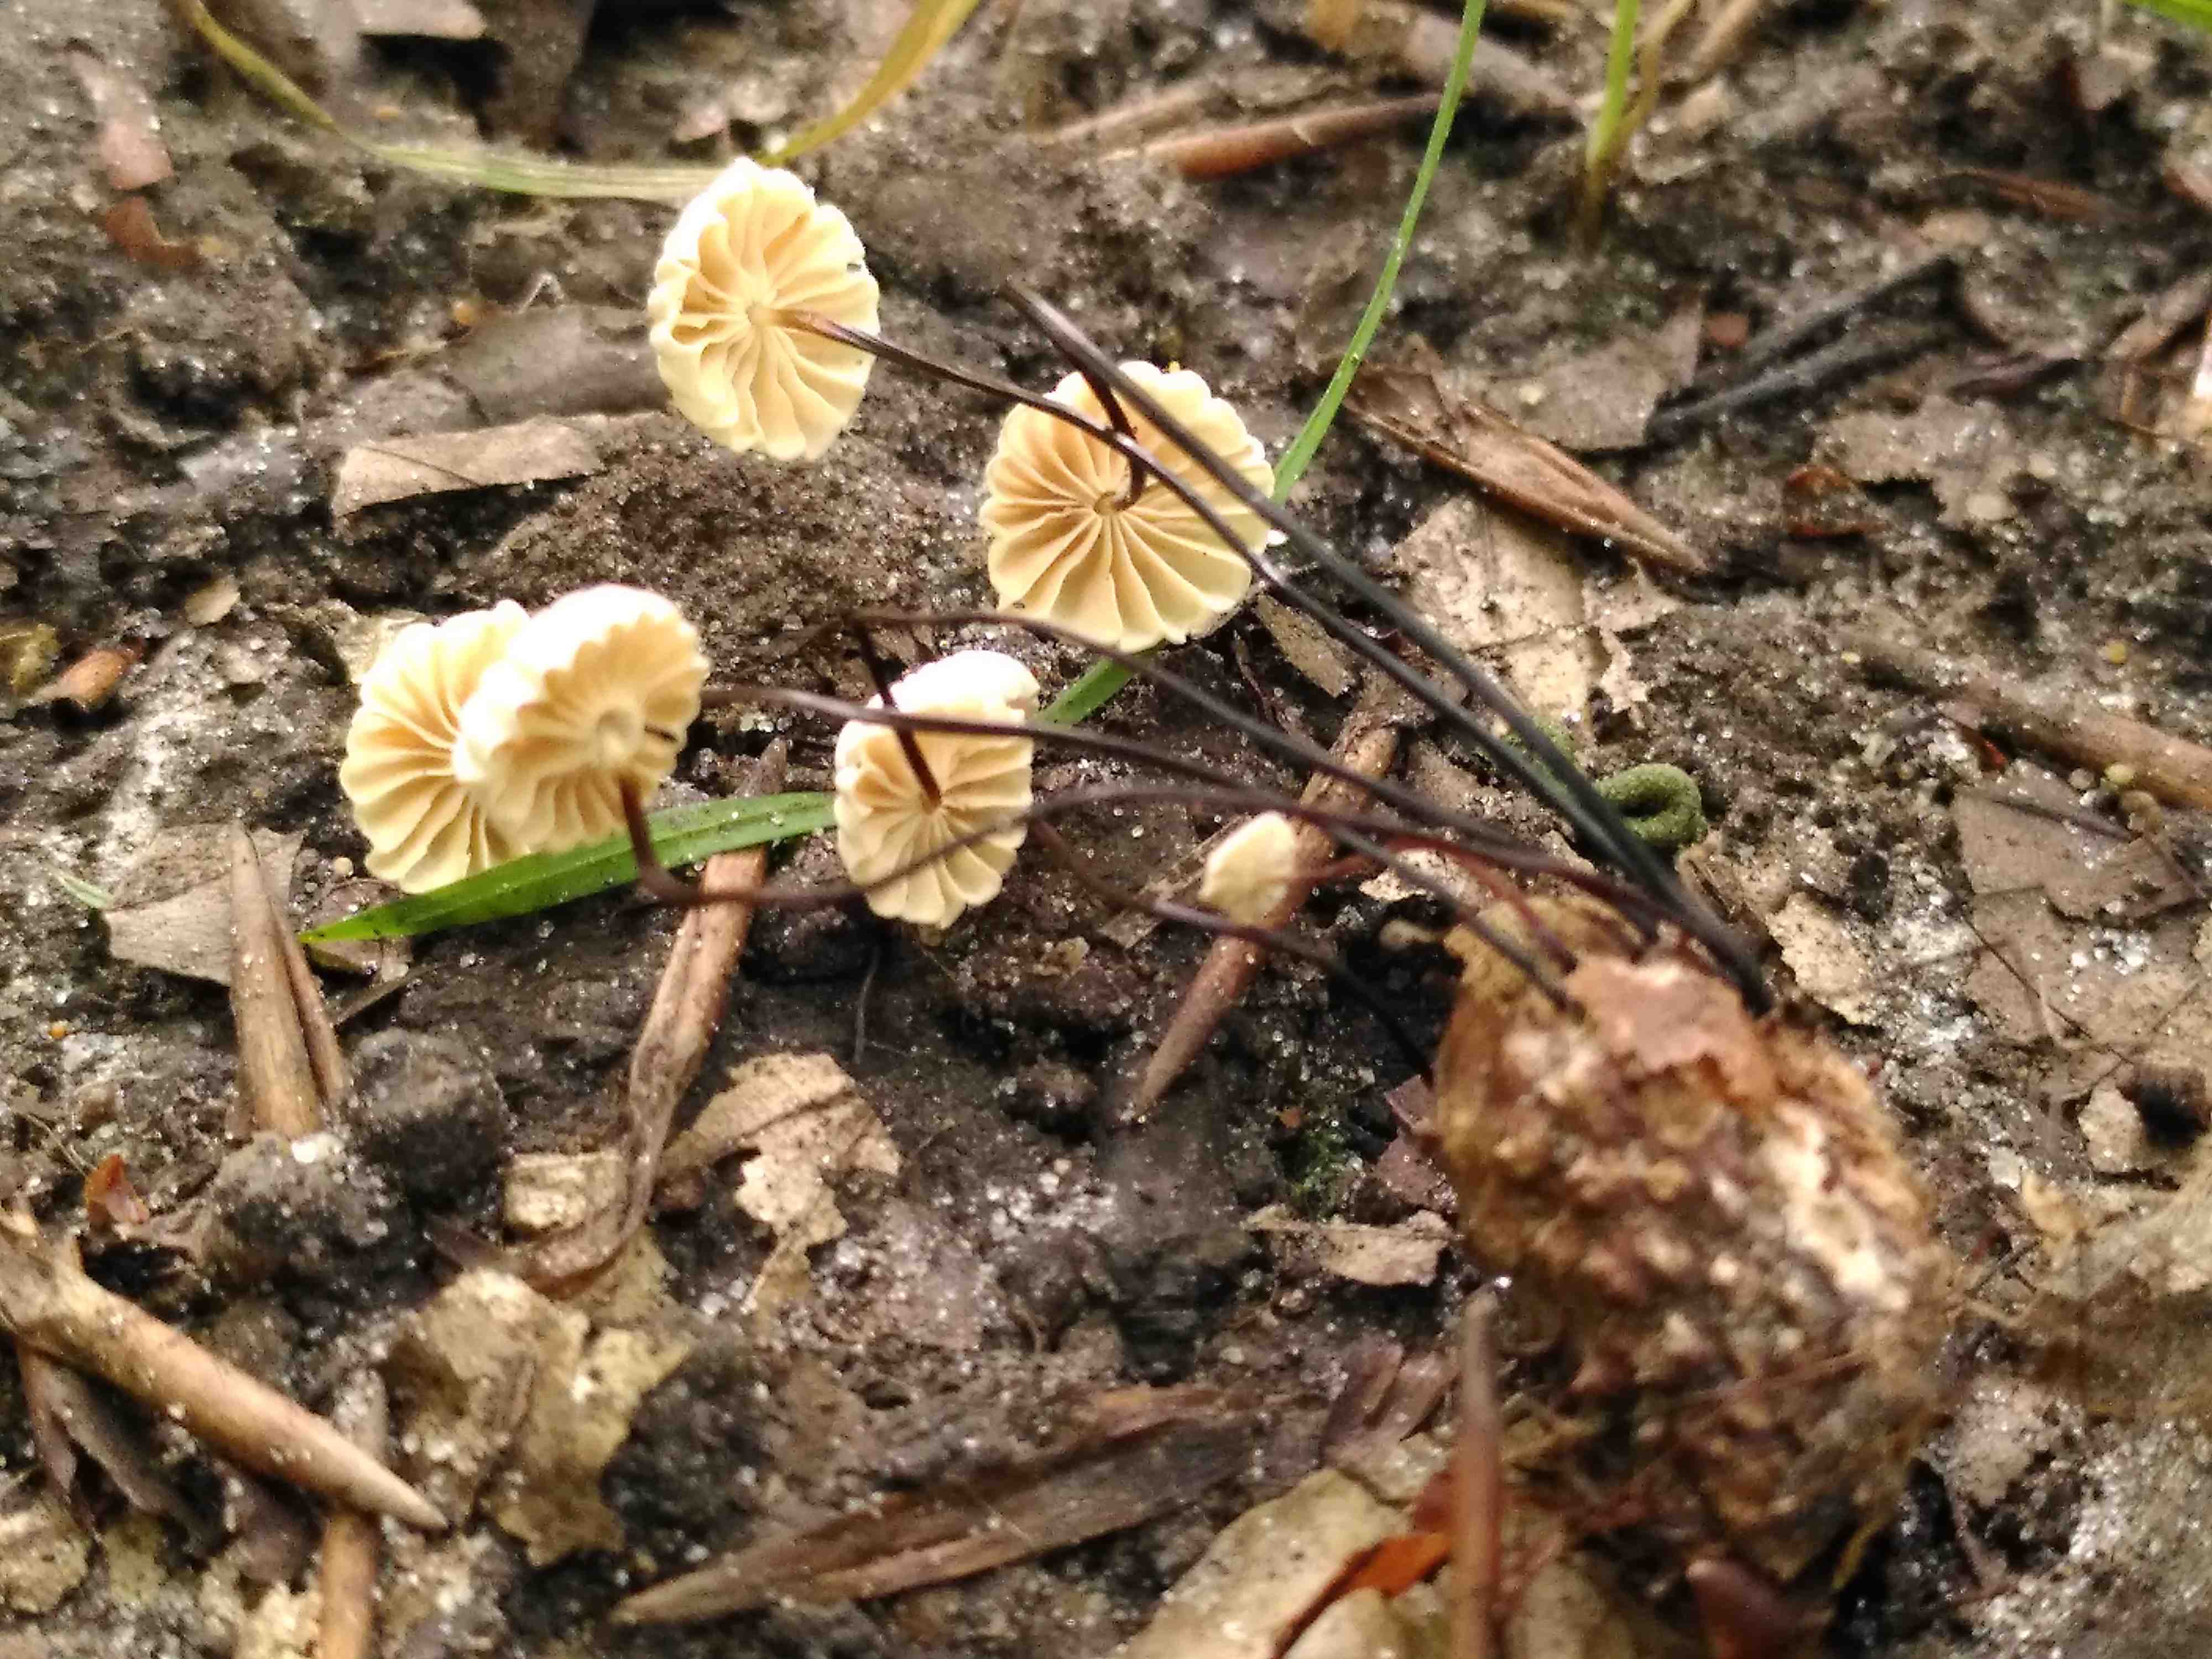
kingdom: Fungi
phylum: Basidiomycota
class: Agaricomycetes
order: Agaricales
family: Marasmiaceae
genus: Marasmius
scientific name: Marasmius rotula
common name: hjul-bruskhat
